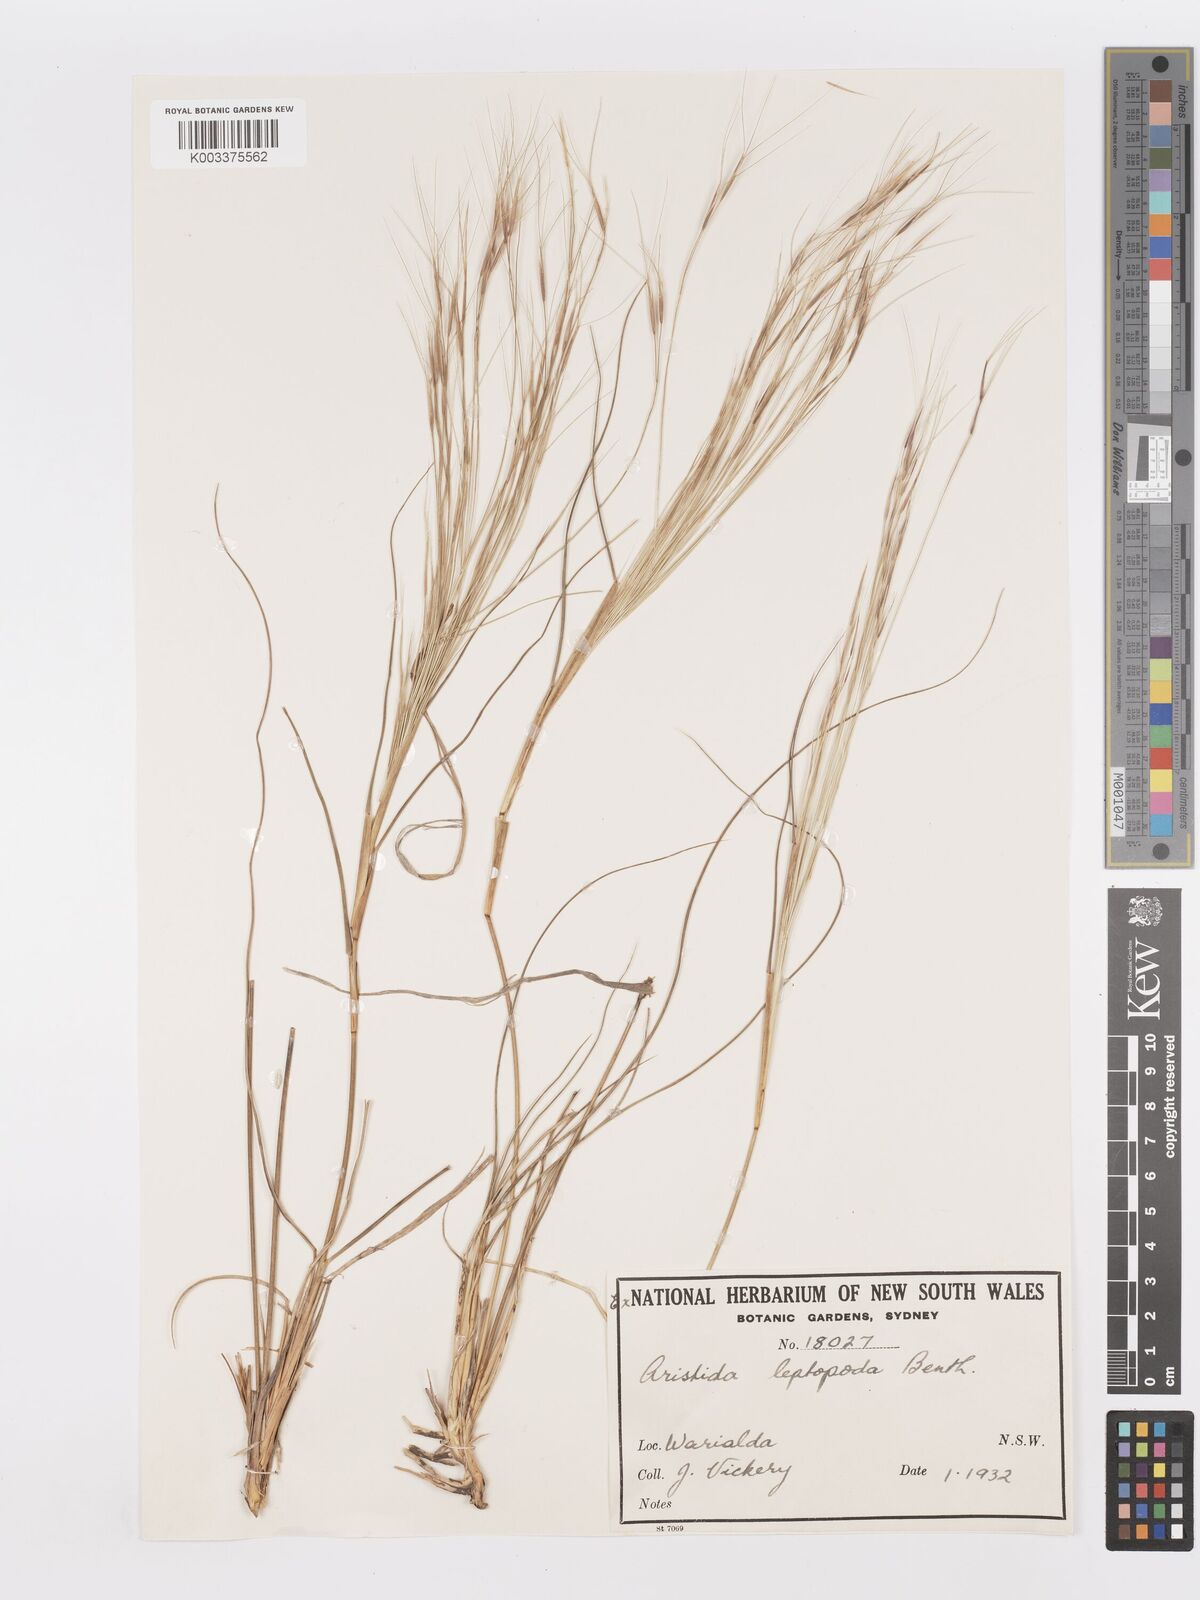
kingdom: Plantae
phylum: Tracheophyta
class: Liliopsida
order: Poales
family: Poaceae
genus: Aristida
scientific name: Aristida leptopoda
